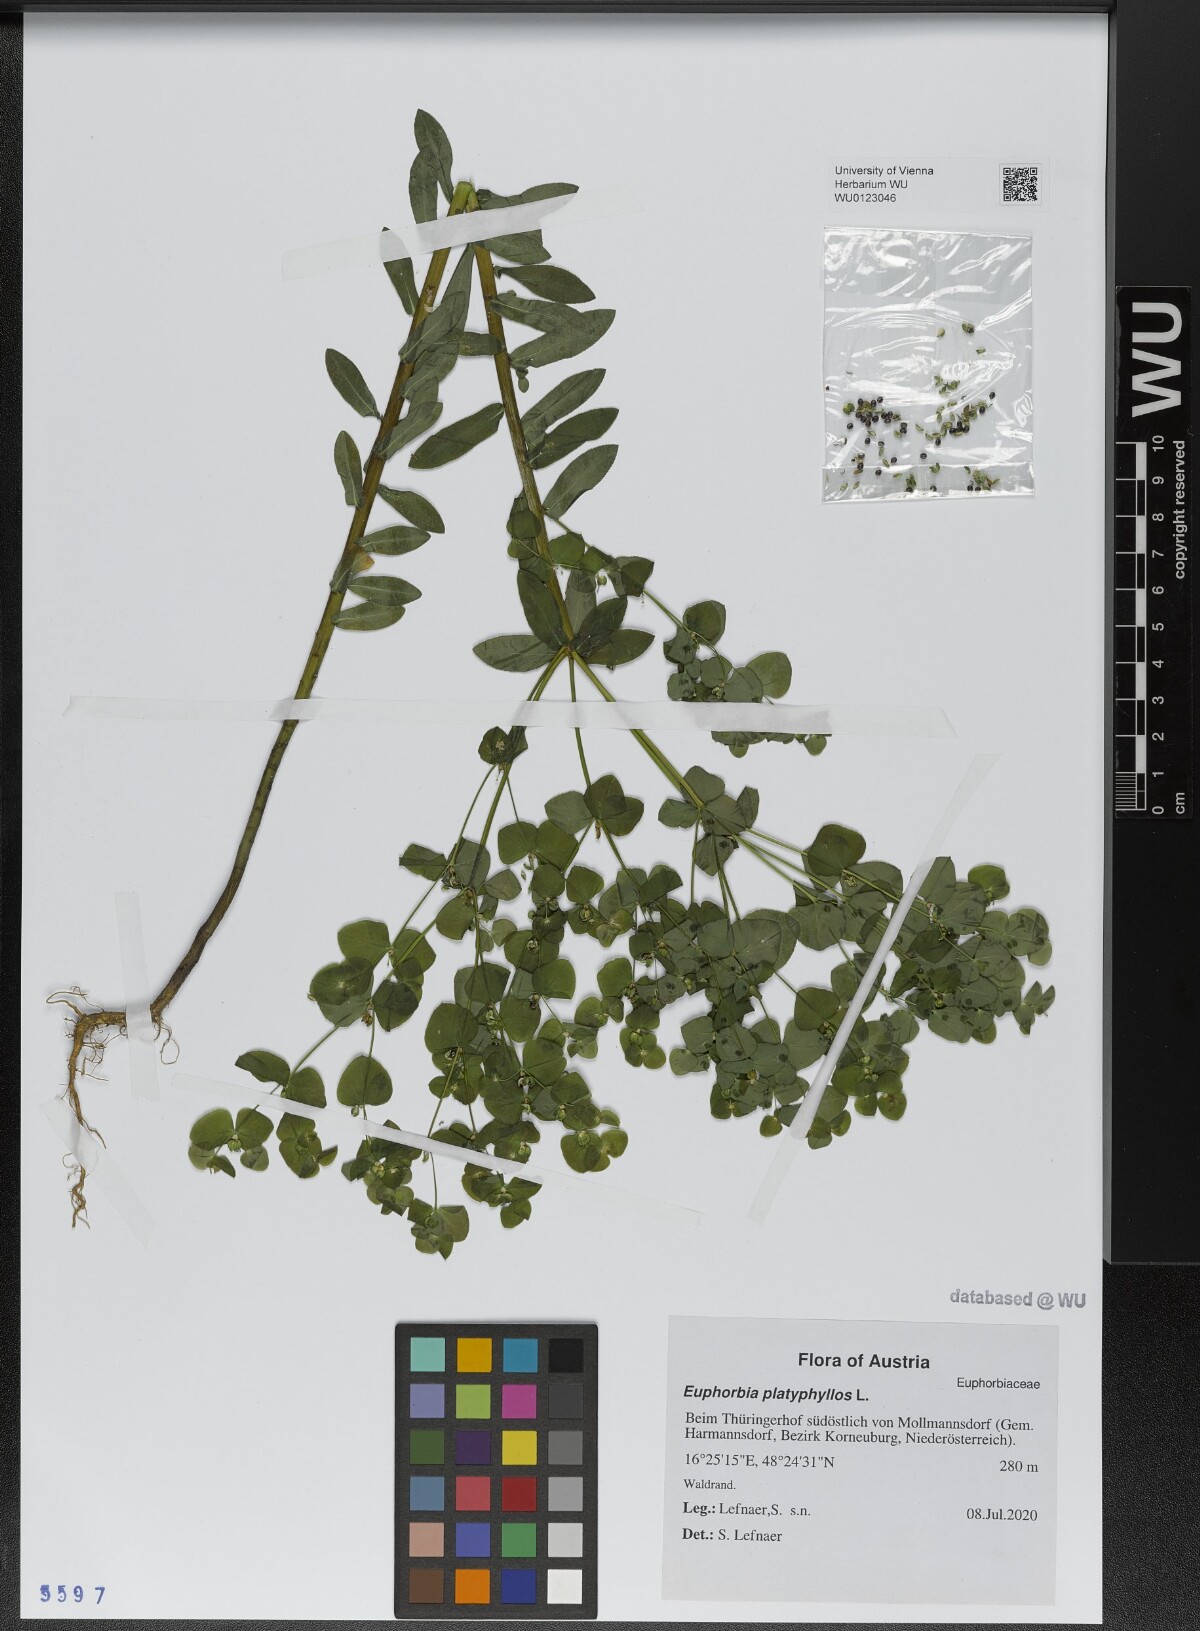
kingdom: Plantae
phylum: Tracheophyta
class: Magnoliopsida
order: Malpighiales
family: Euphorbiaceae
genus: Euphorbia
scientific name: Euphorbia platyphyllos
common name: Broad-leaved spurge
